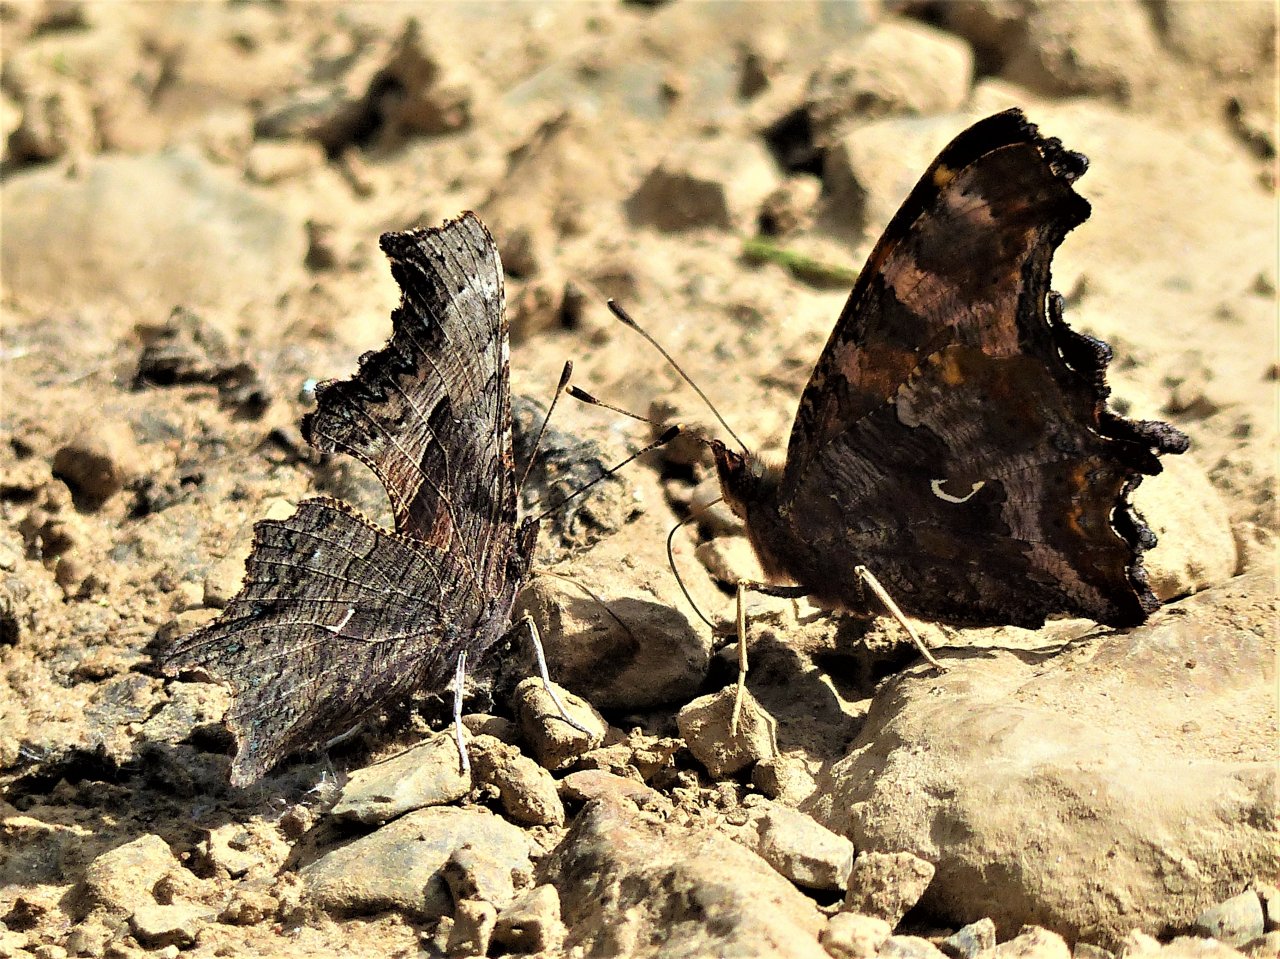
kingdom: Animalia
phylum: Arthropoda
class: Insecta
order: Lepidoptera
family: Nymphalidae
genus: Polygonia
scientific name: Polygonia progne
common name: Gray Comma
